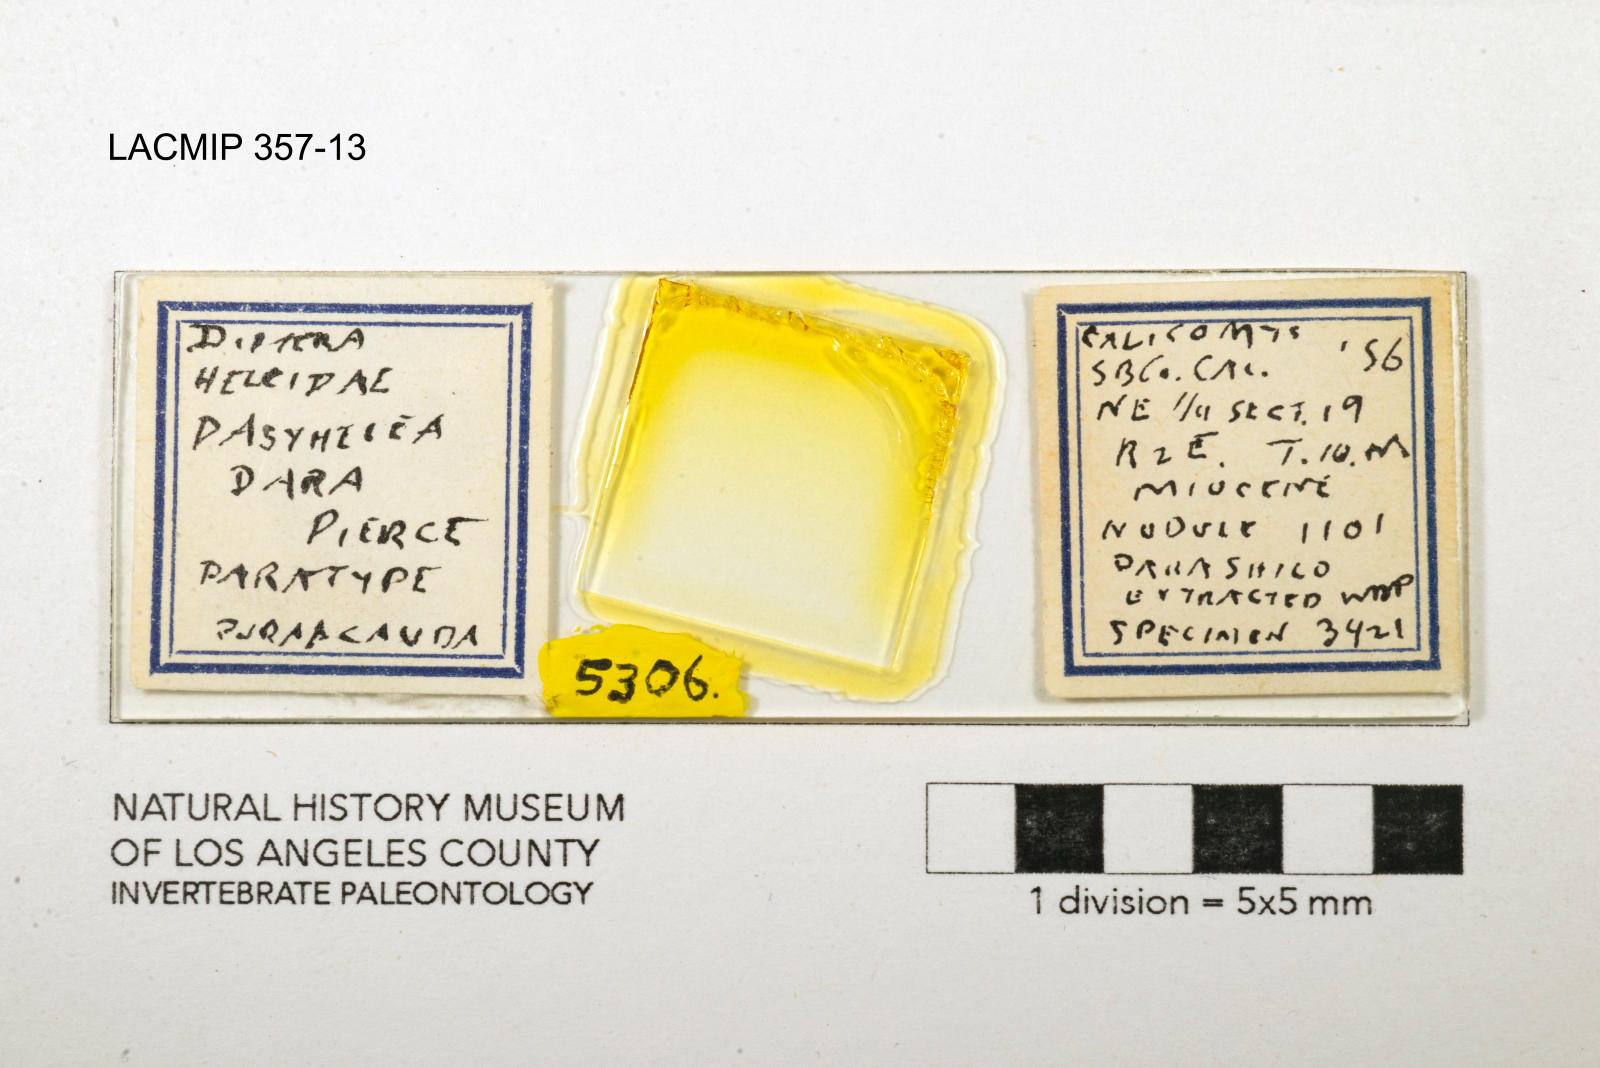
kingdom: Animalia
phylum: Arthropoda
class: Insecta
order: Diptera
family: Ceratopogonidae
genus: Dasyhelea
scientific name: Dasyhelea dara
